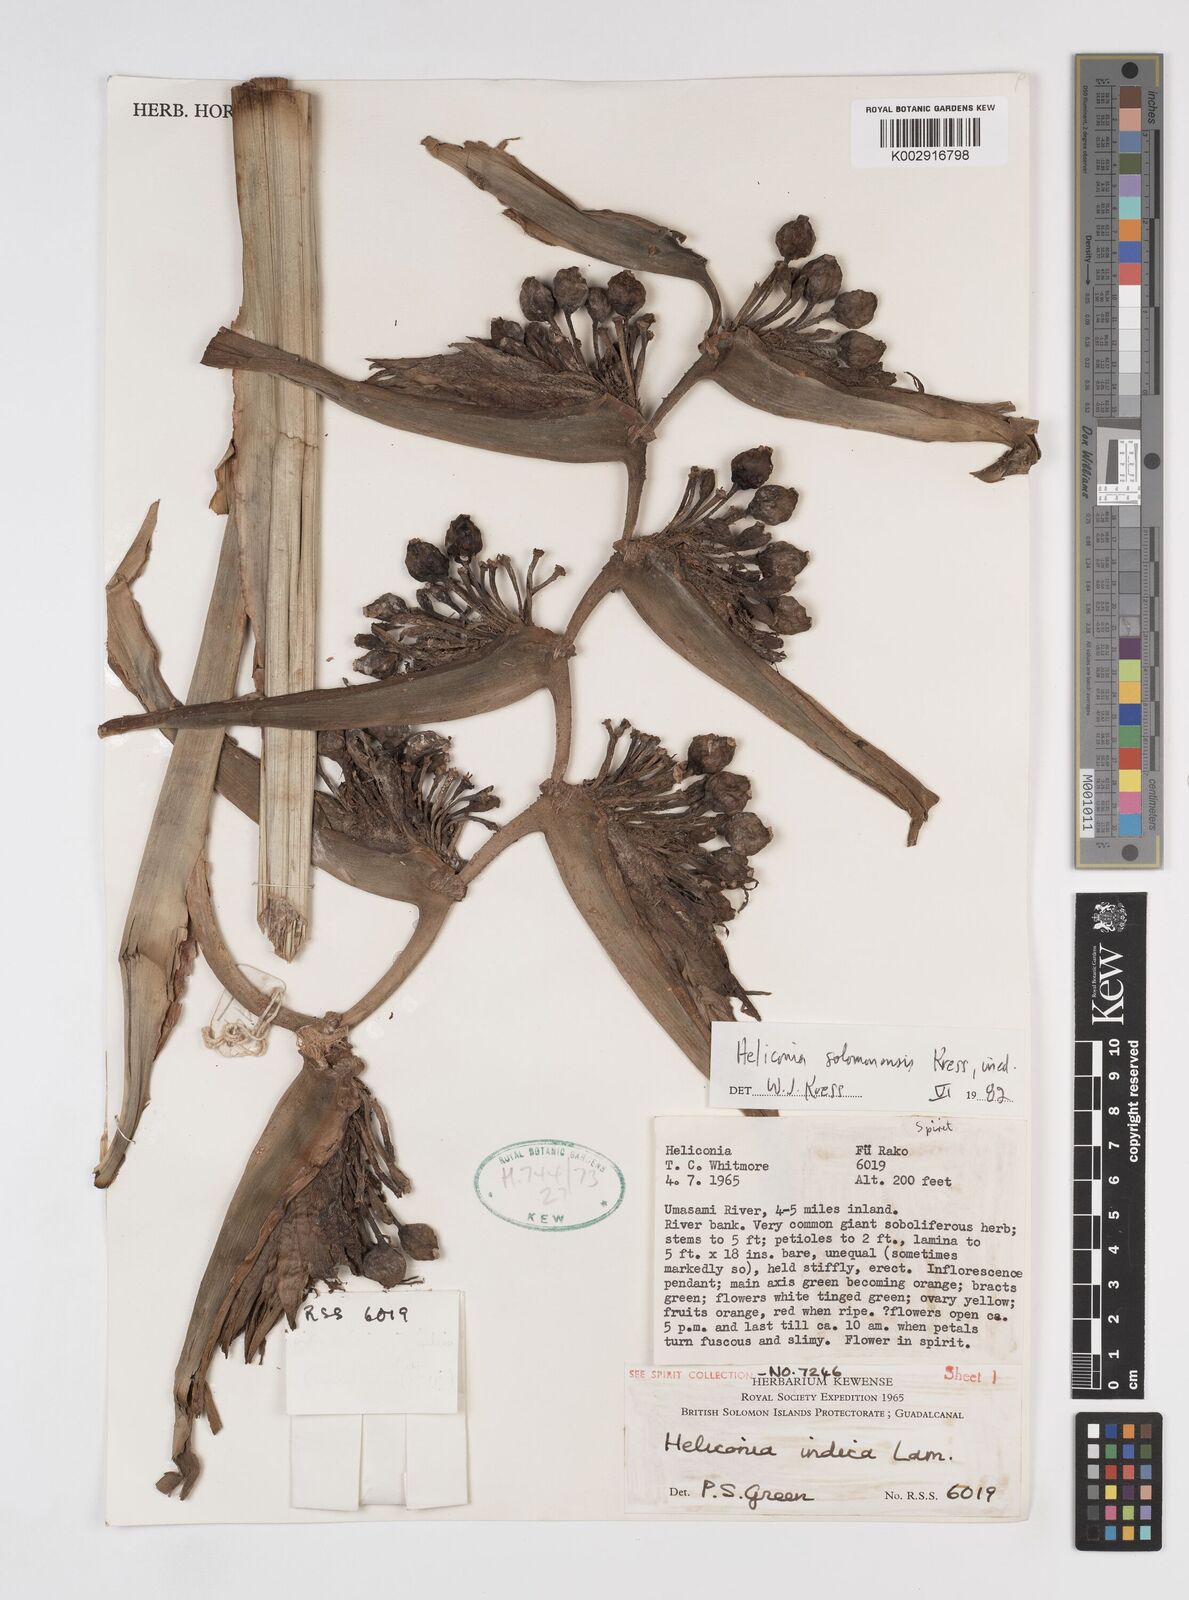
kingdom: Plantae
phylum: Tracheophyta
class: Liliopsida
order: Zingiberales
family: Heliconiaceae
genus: Heliconia
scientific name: Heliconia solomonensis
